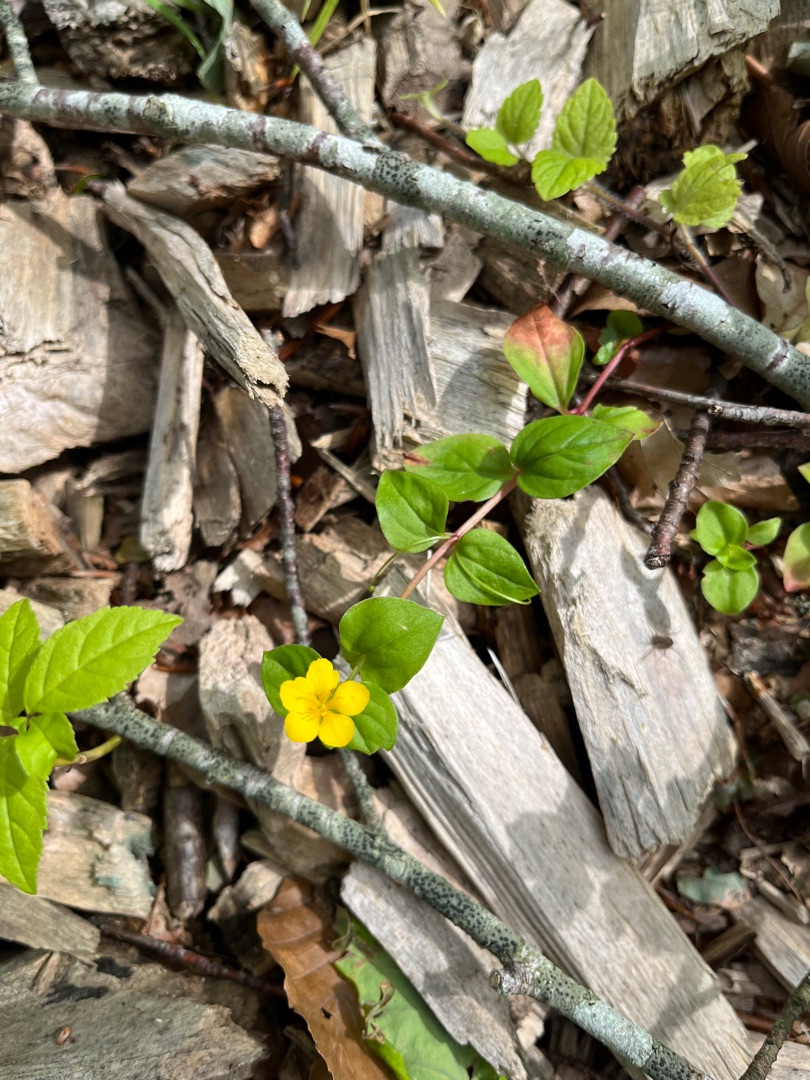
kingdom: Plantae
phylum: Tracheophyta
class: Magnoliopsida
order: Ericales
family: Primulaceae
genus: Lysimachia
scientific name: Lysimachia nemorum
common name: Lund-fredløs
